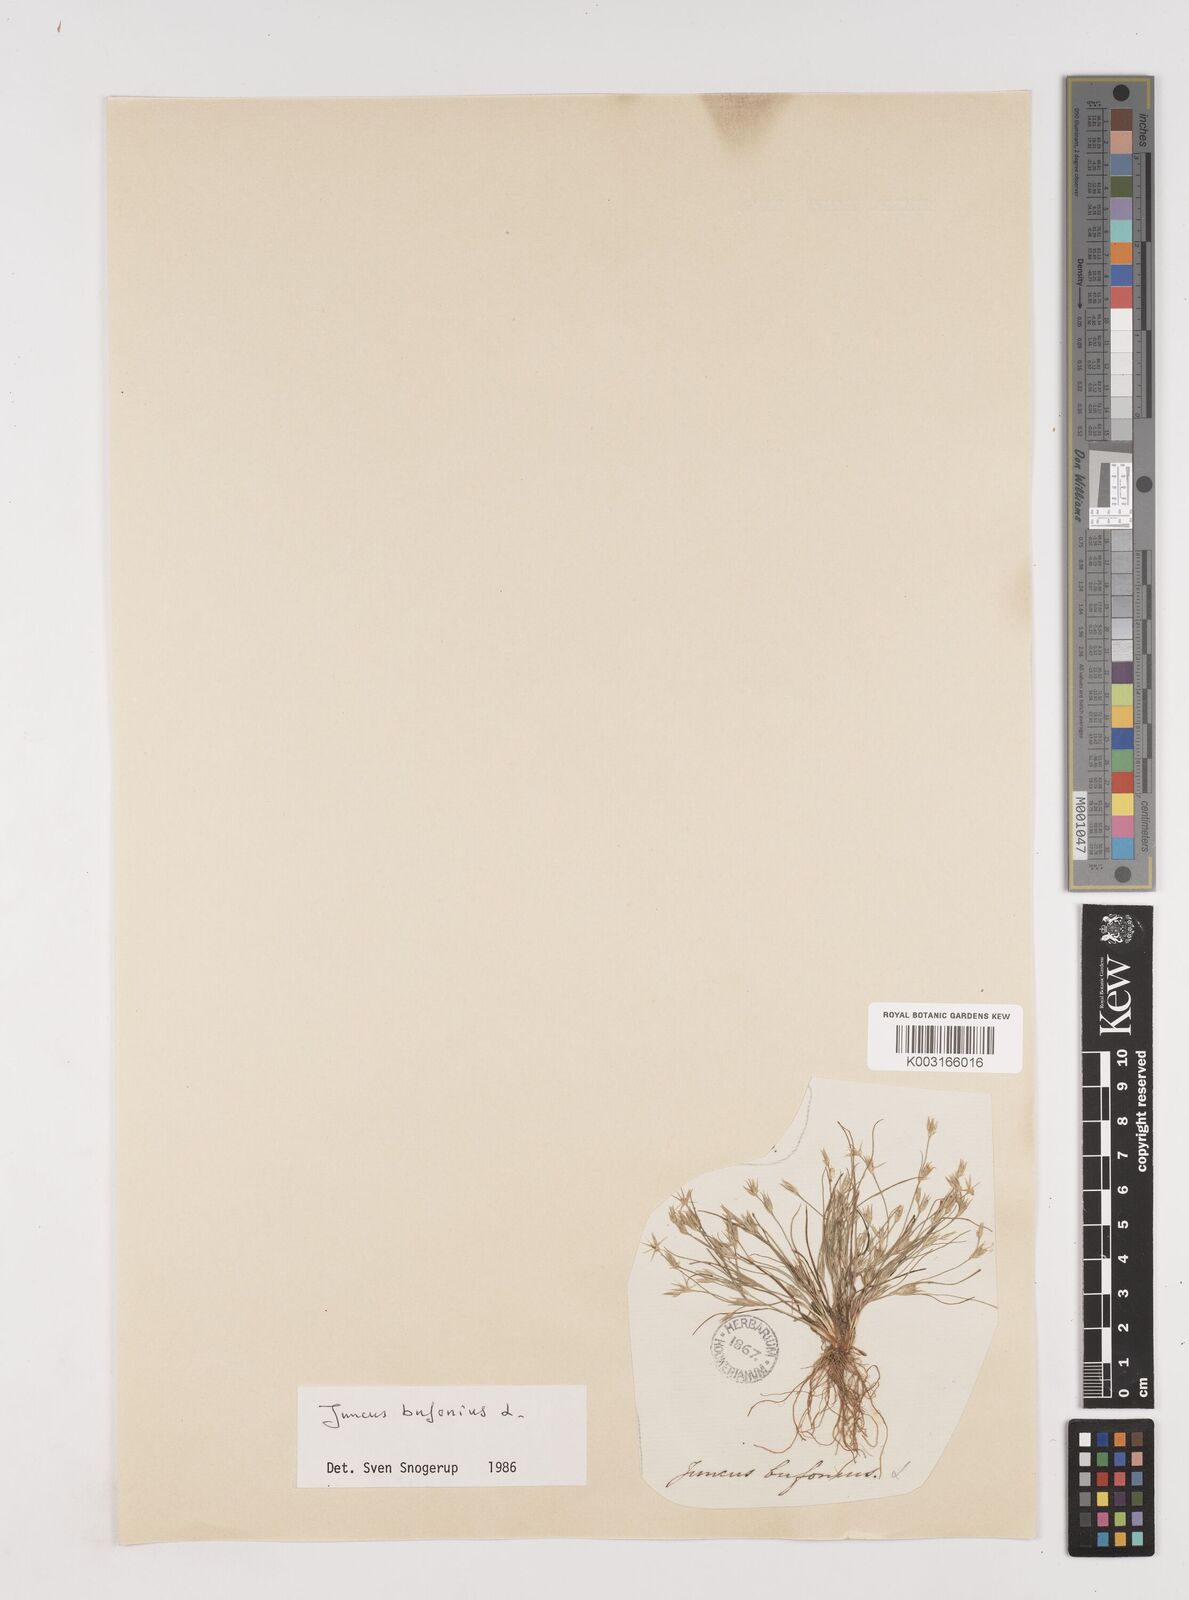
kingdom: Plantae
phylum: Tracheophyta
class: Liliopsida
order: Poales
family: Juncaceae
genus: Juncus
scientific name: Juncus bufonius
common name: Toad rush
